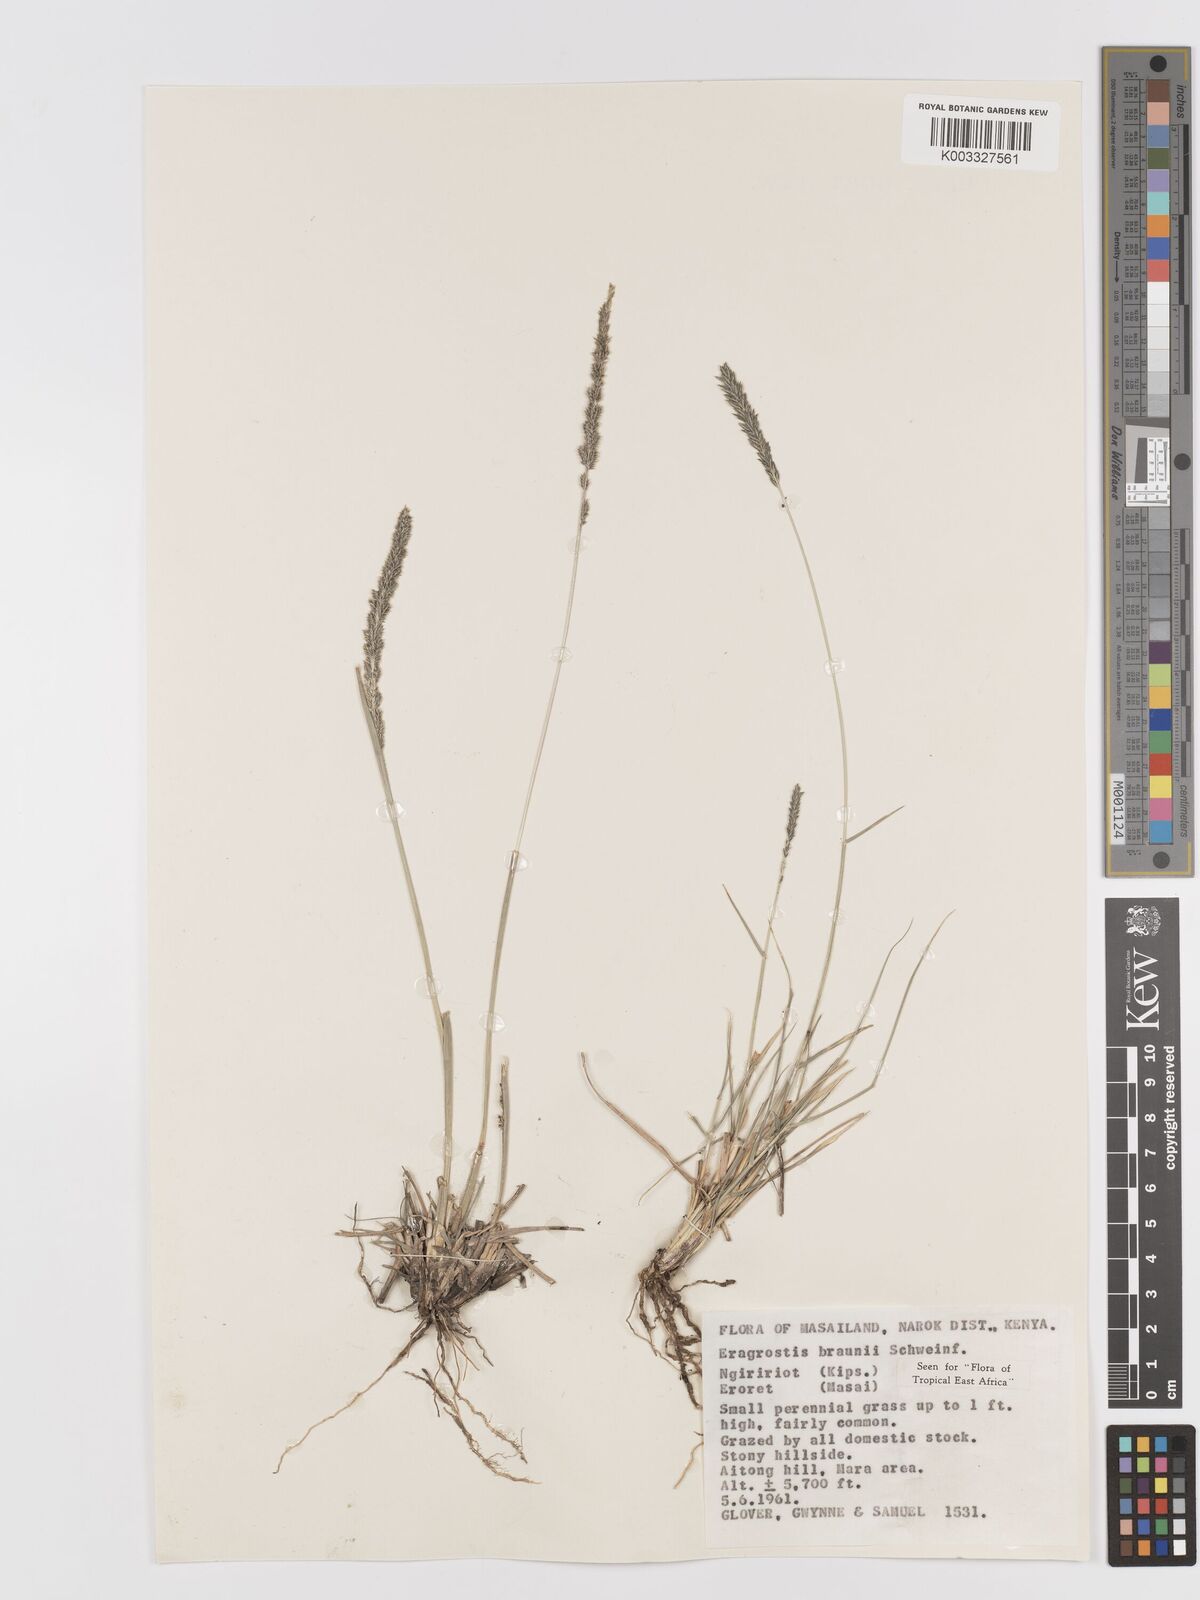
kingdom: Plantae
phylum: Tracheophyta
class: Liliopsida
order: Poales
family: Poaceae
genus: Eragrostis
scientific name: Eragrostis braunii
